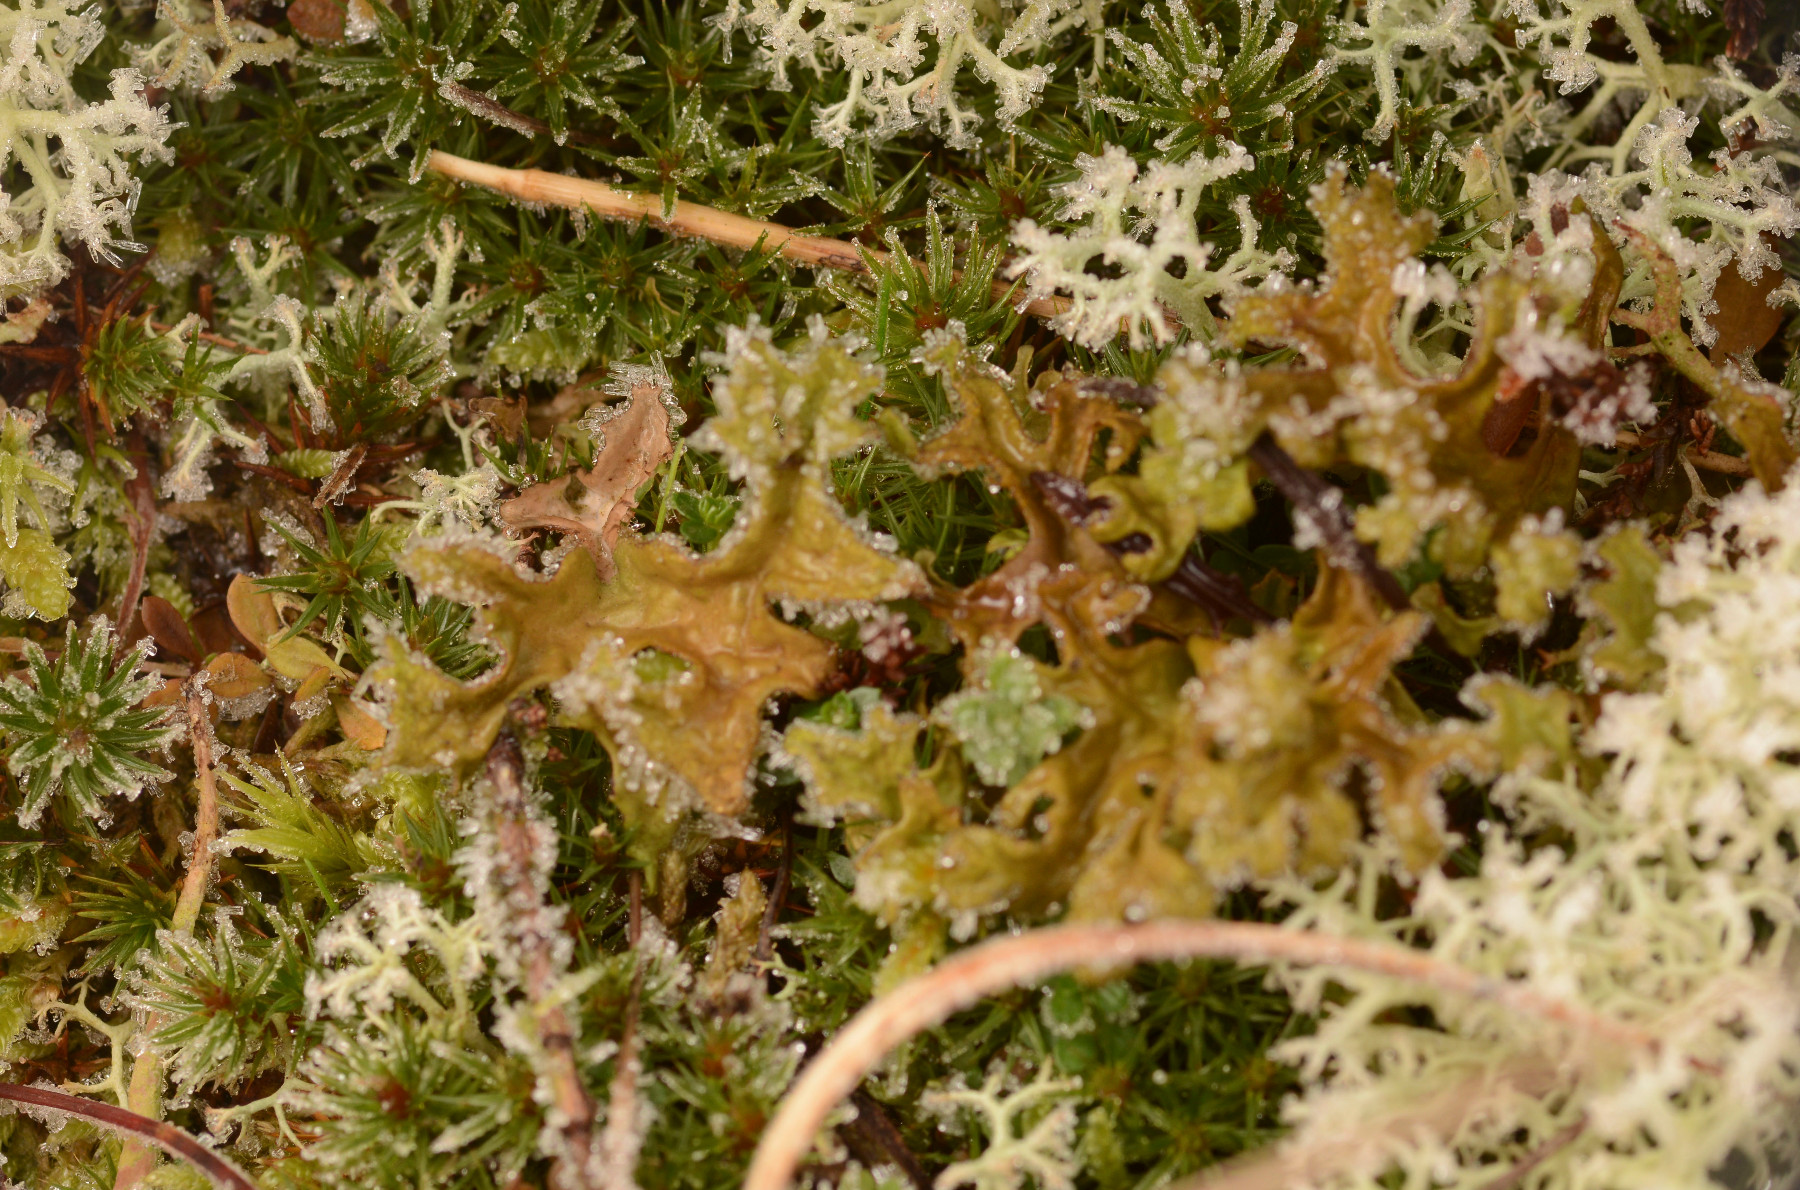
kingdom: Fungi
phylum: Ascomycota
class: Lecanoromycetes
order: Lecanorales
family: Parmeliaceae
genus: Cetraria
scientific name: Cetraria islandica
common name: islandsk kruslav
